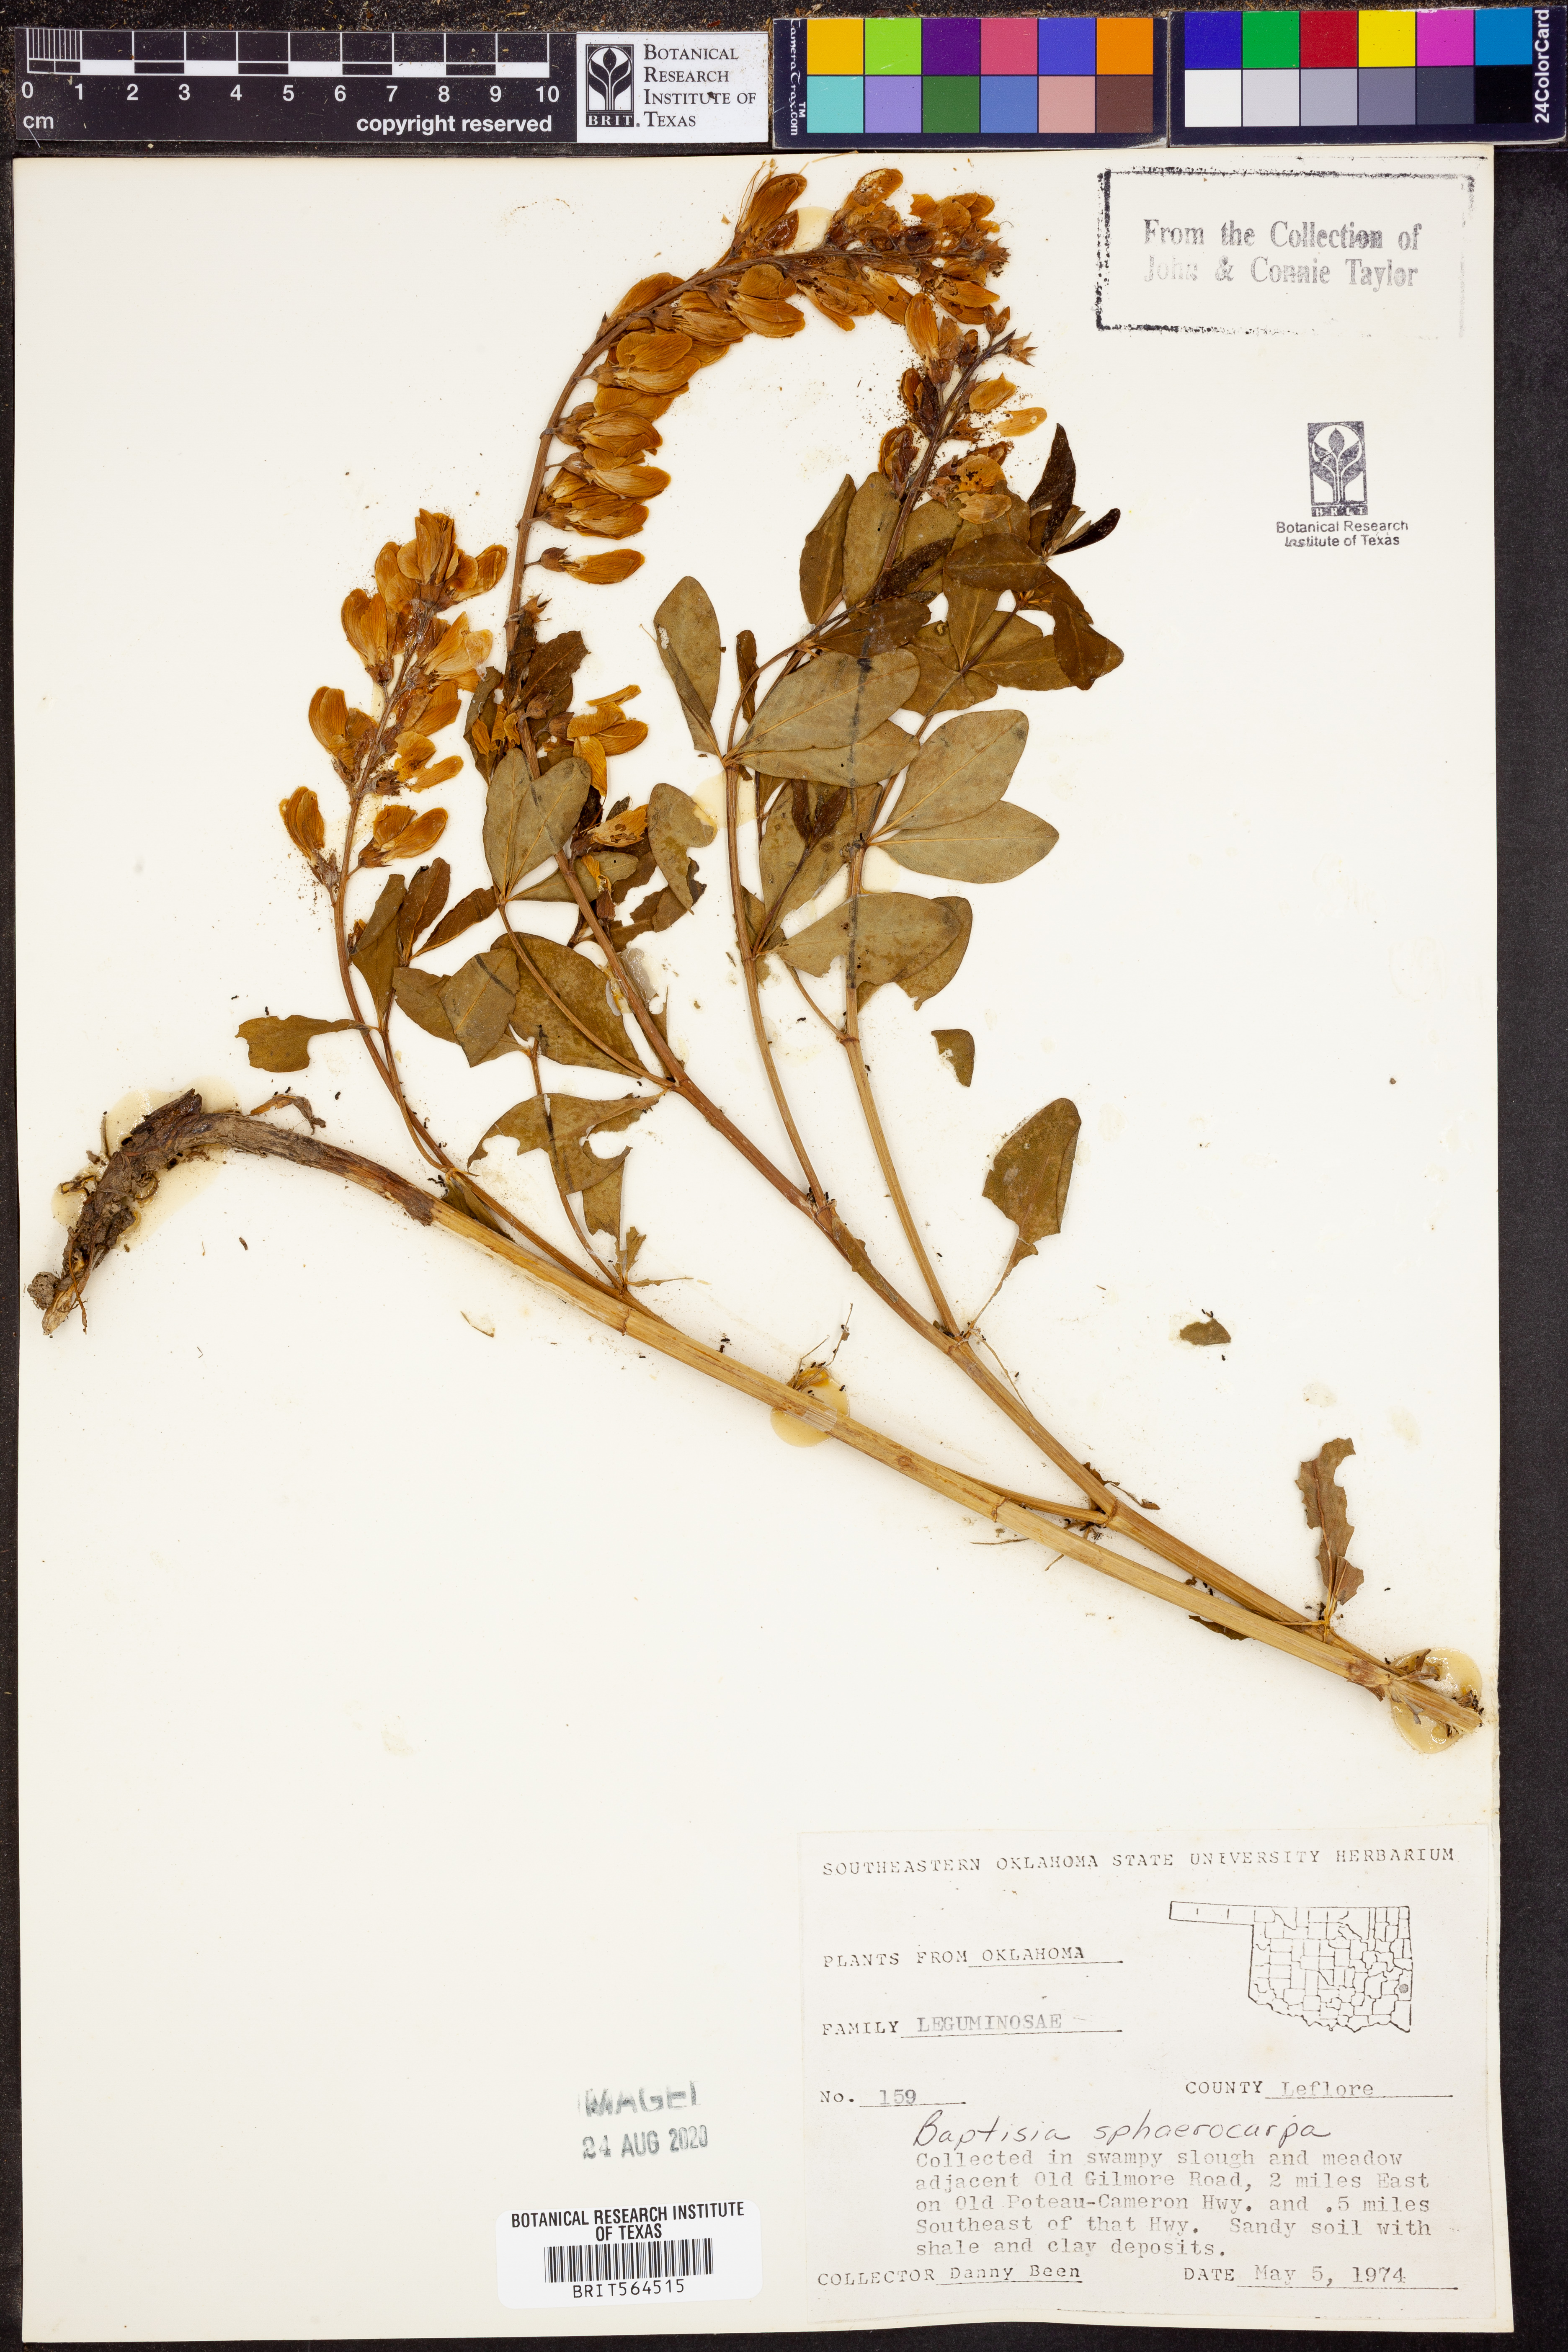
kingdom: Plantae
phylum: Tracheophyta
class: Magnoliopsida
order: Fabales
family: Fabaceae
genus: Baptisia
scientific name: Baptisia sphaerocarpa
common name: Round wild indigo
